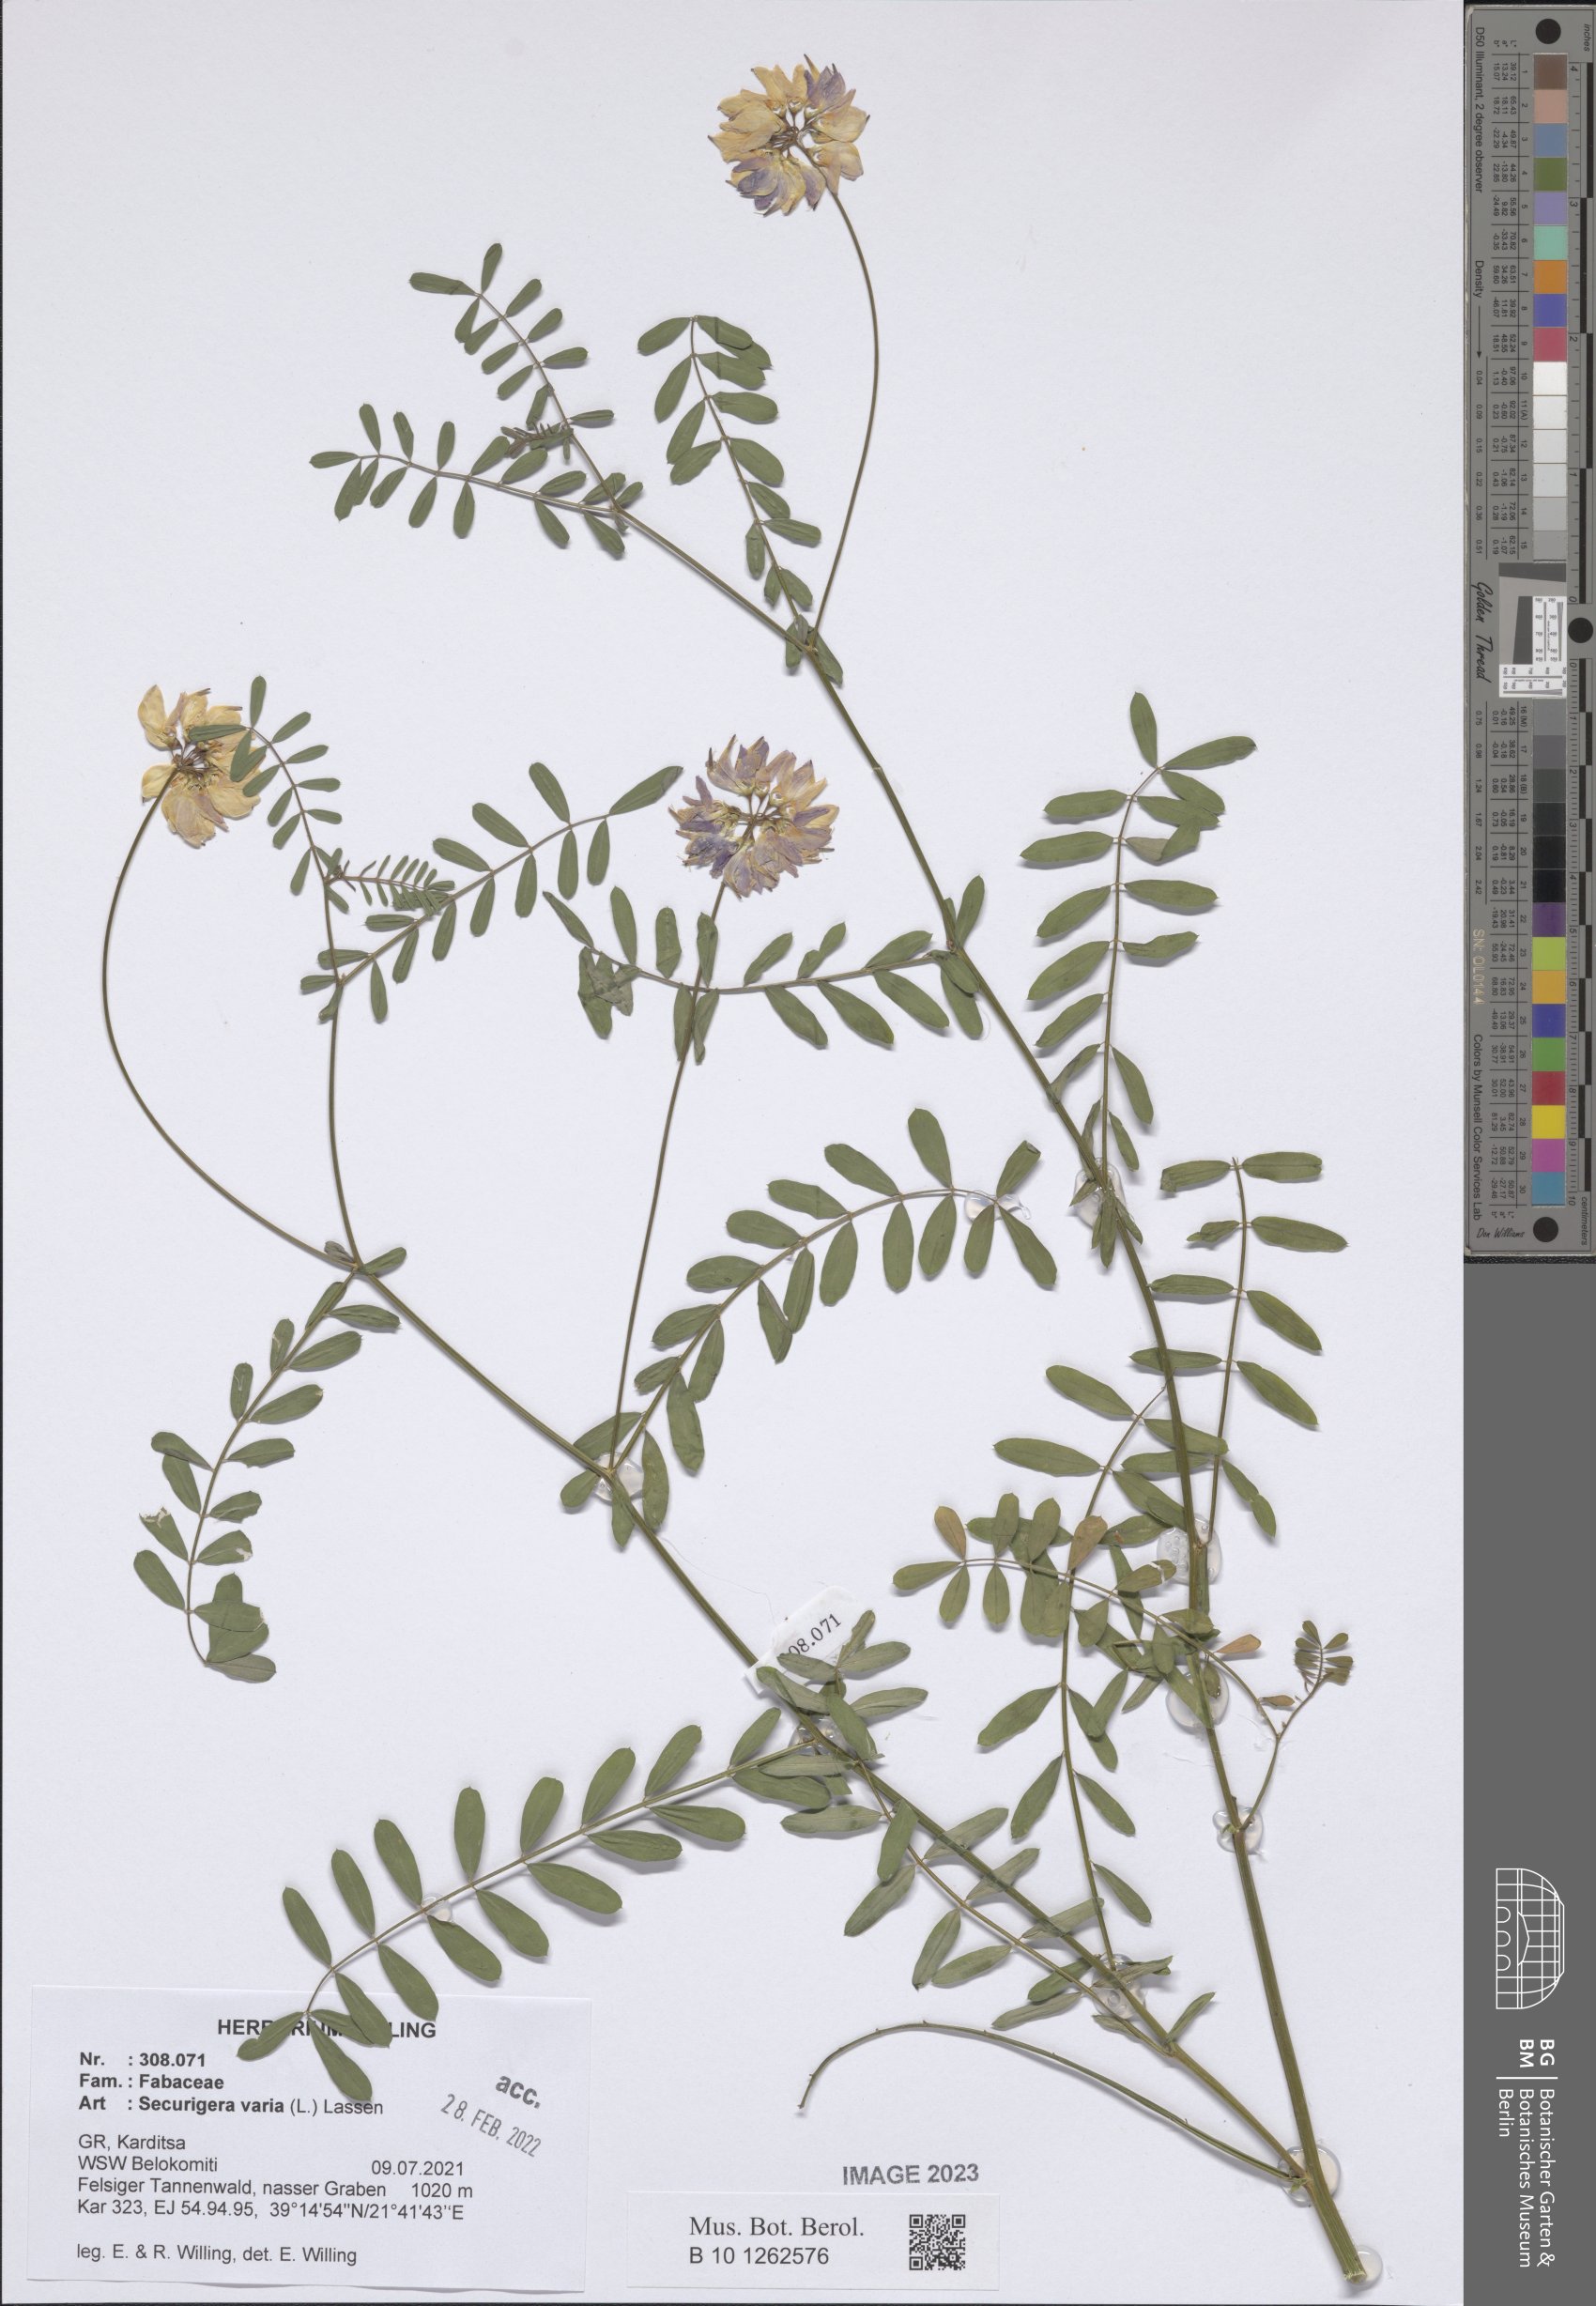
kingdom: Plantae
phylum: Tracheophyta
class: Magnoliopsida
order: Fabales
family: Fabaceae
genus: Coronilla
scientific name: Coronilla varia
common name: Crownvetch
